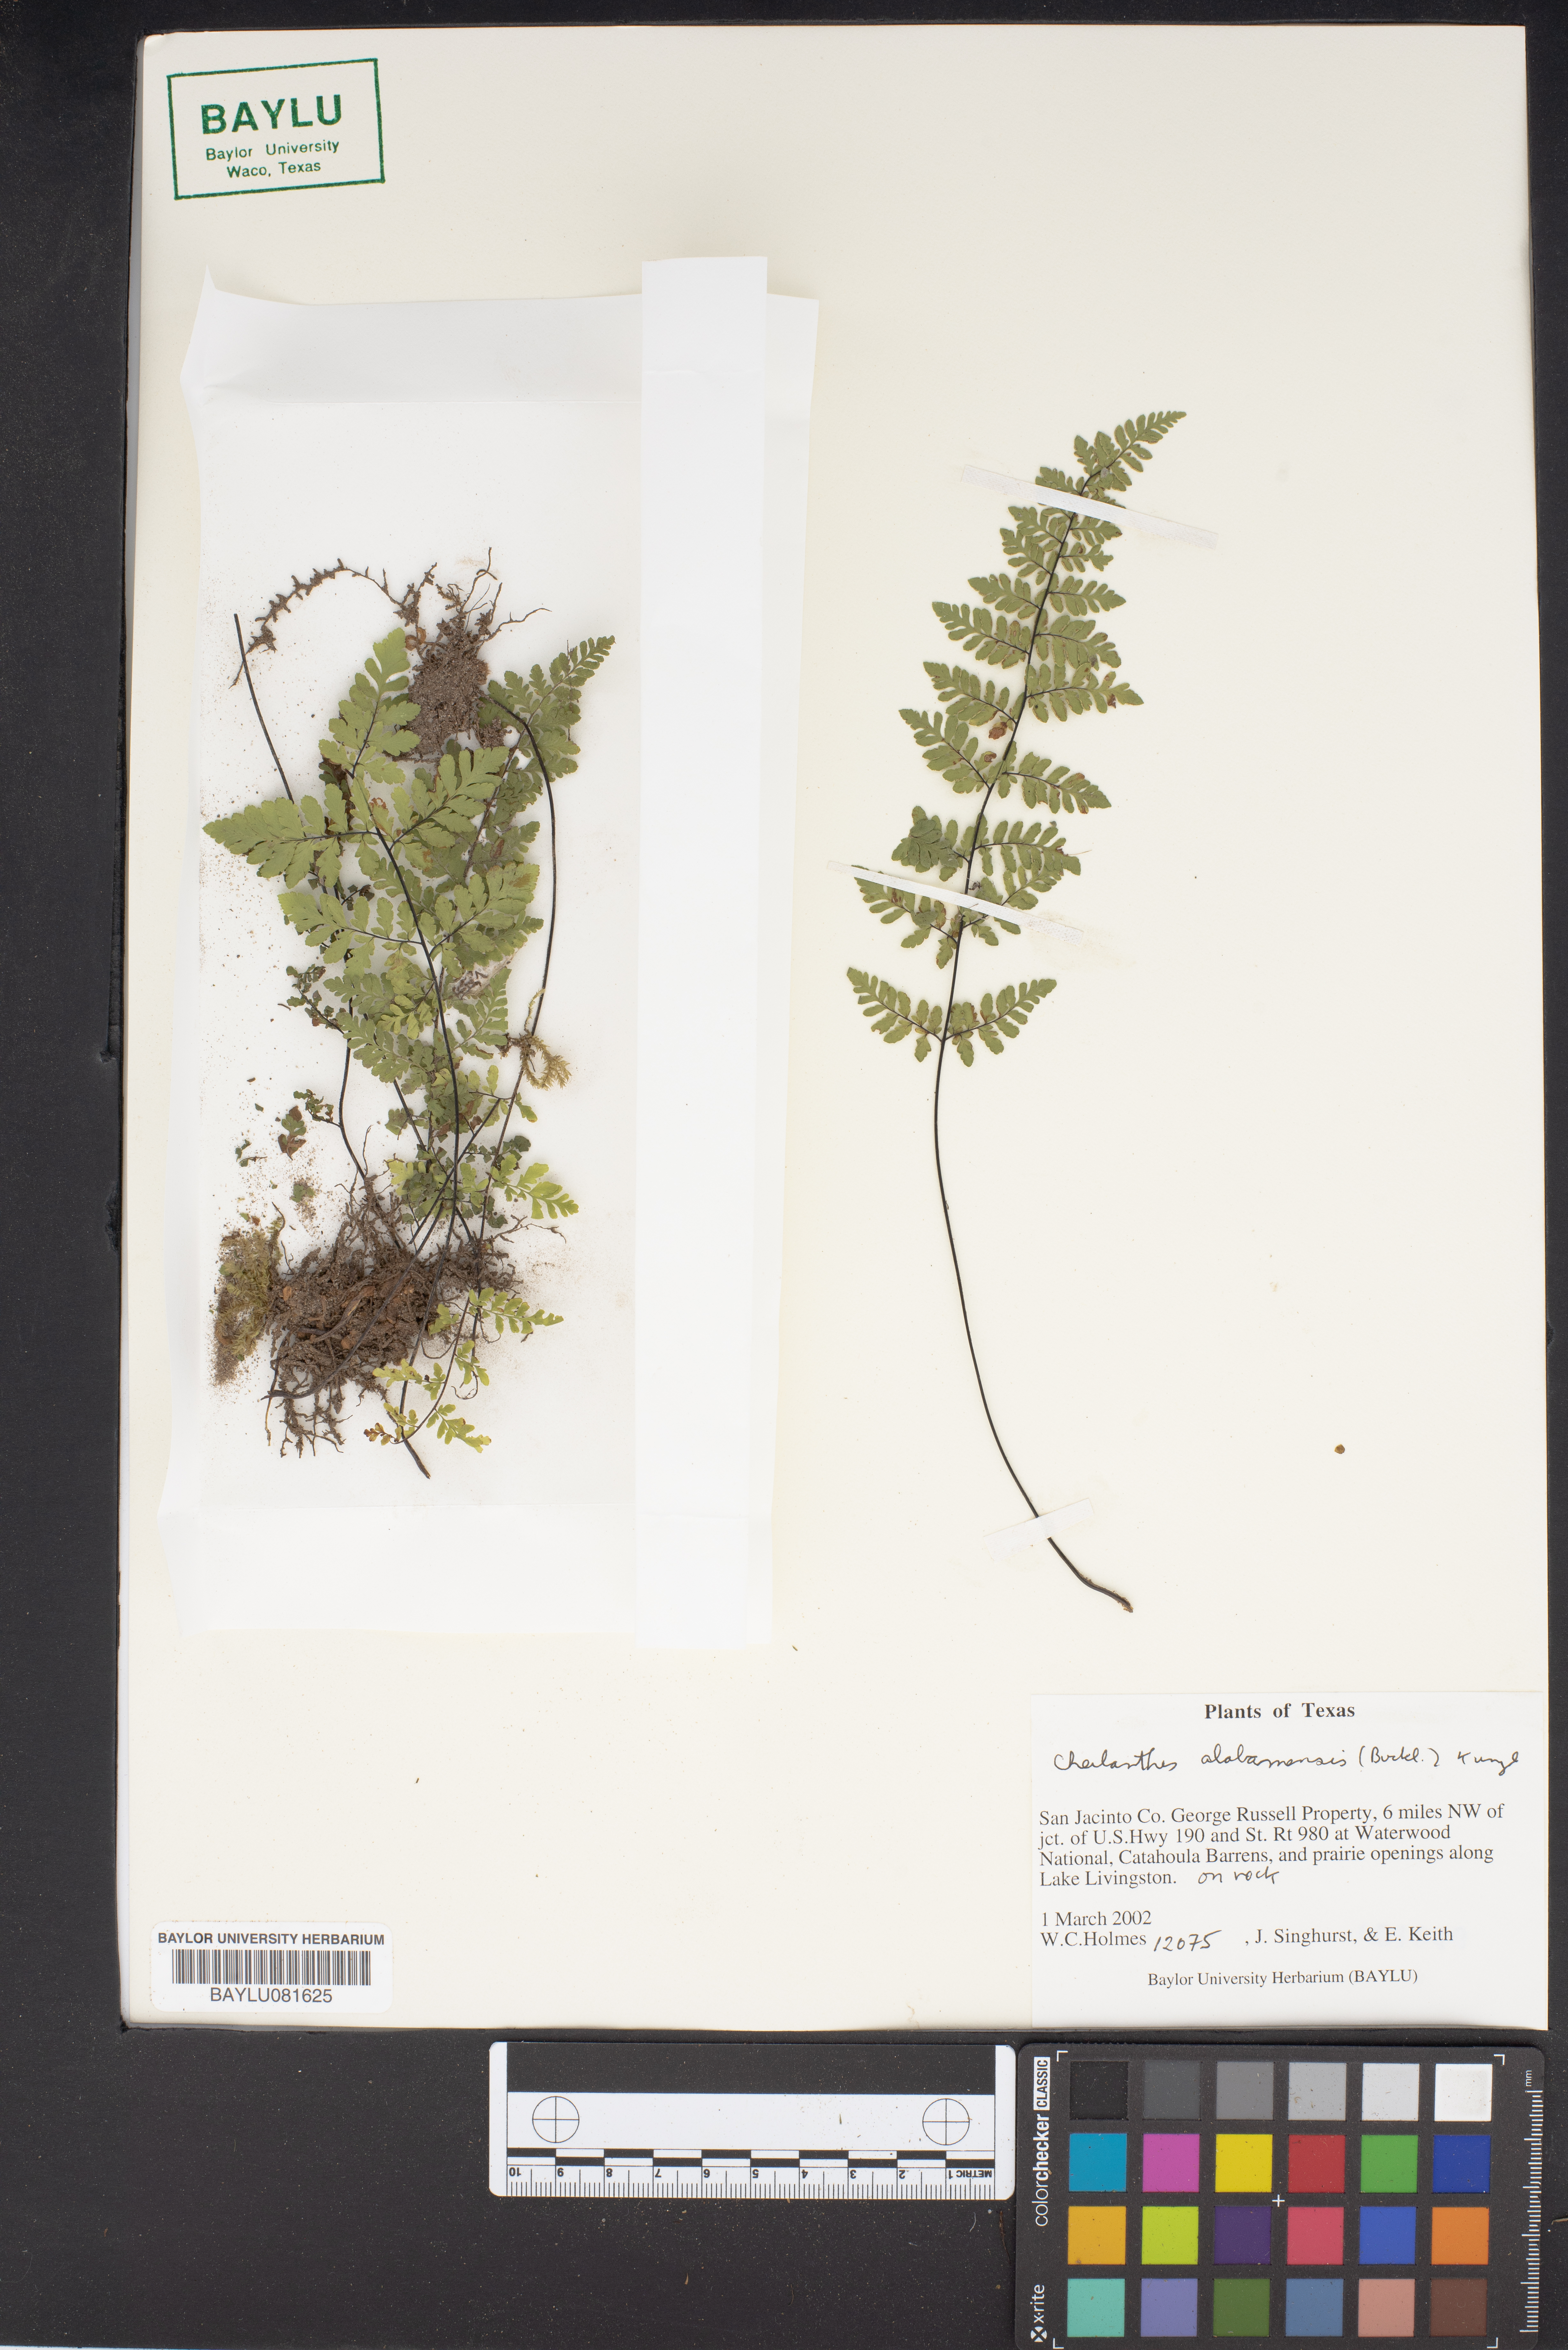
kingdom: Plantae
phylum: Tracheophyta
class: Polypodiopsida
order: Polypodiales
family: Pteridaceae
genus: Myriopteris
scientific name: Myriopteris alabamensis
